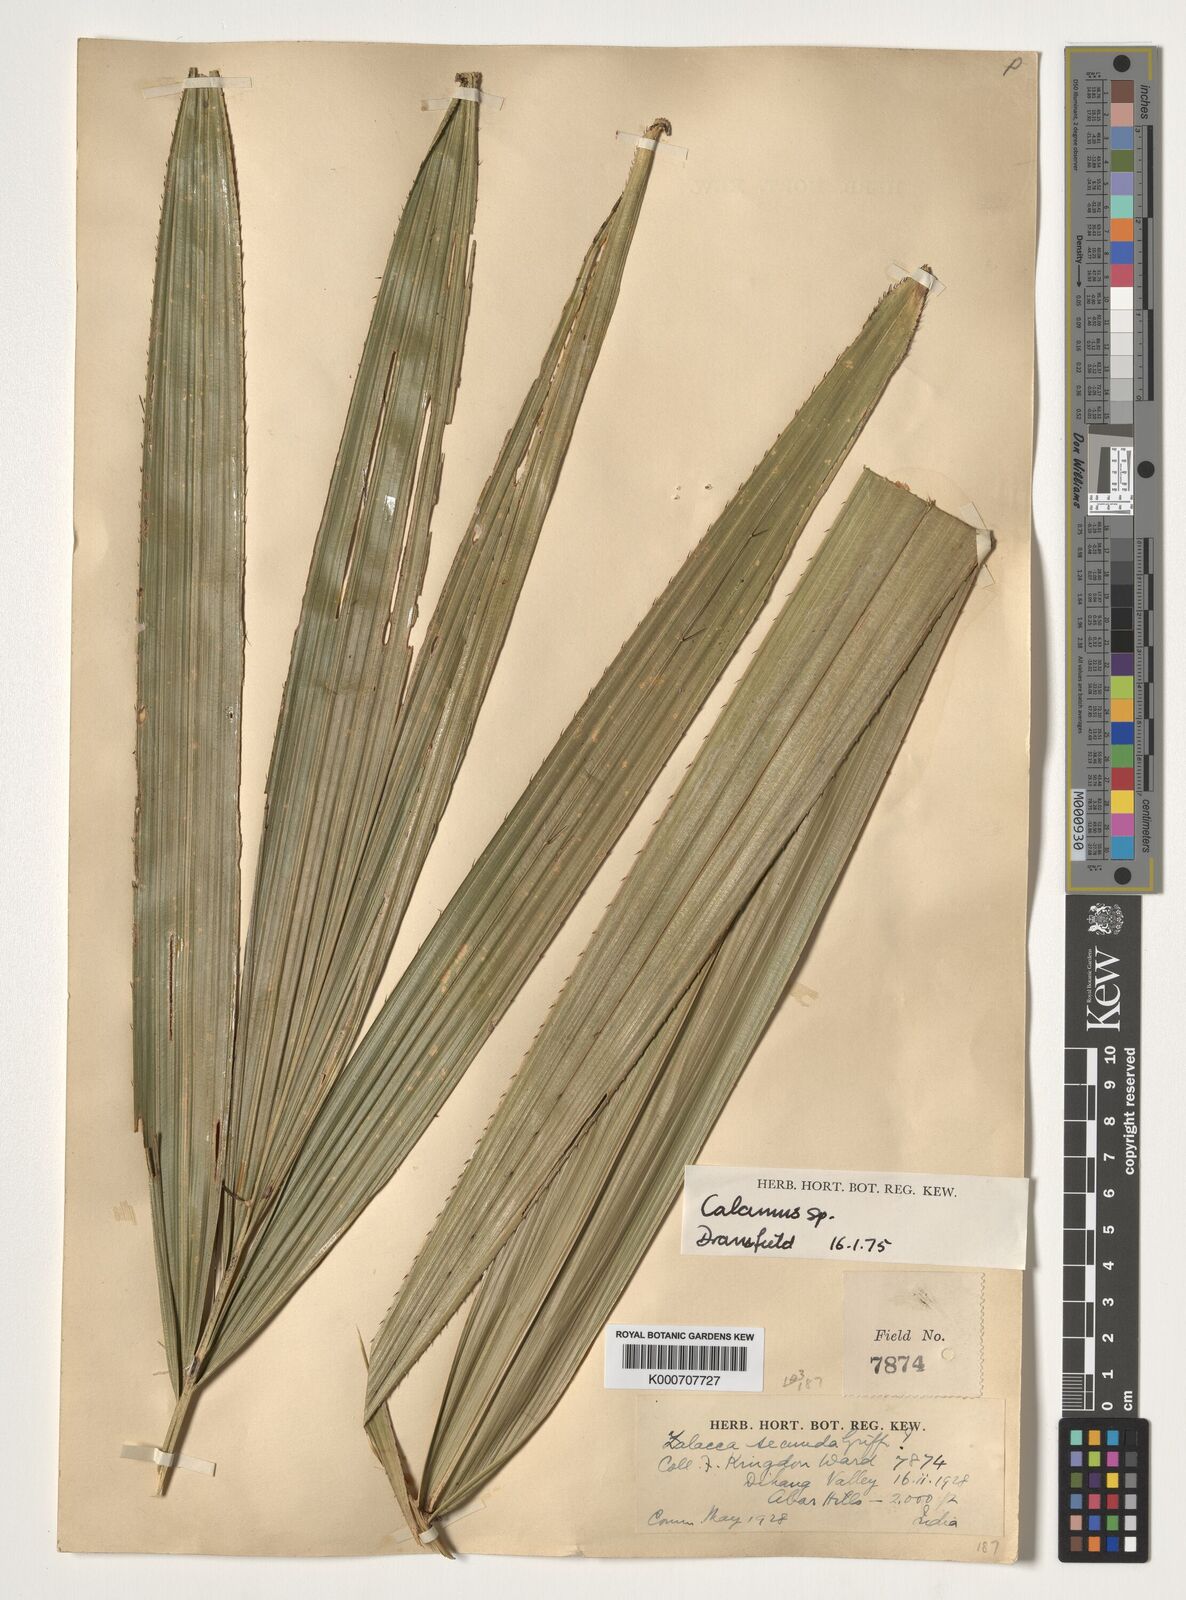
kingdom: Plantae
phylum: Tracheophyta
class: Liliopsida
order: Arecales
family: Arecaceae
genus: Calamus
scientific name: Calamus
